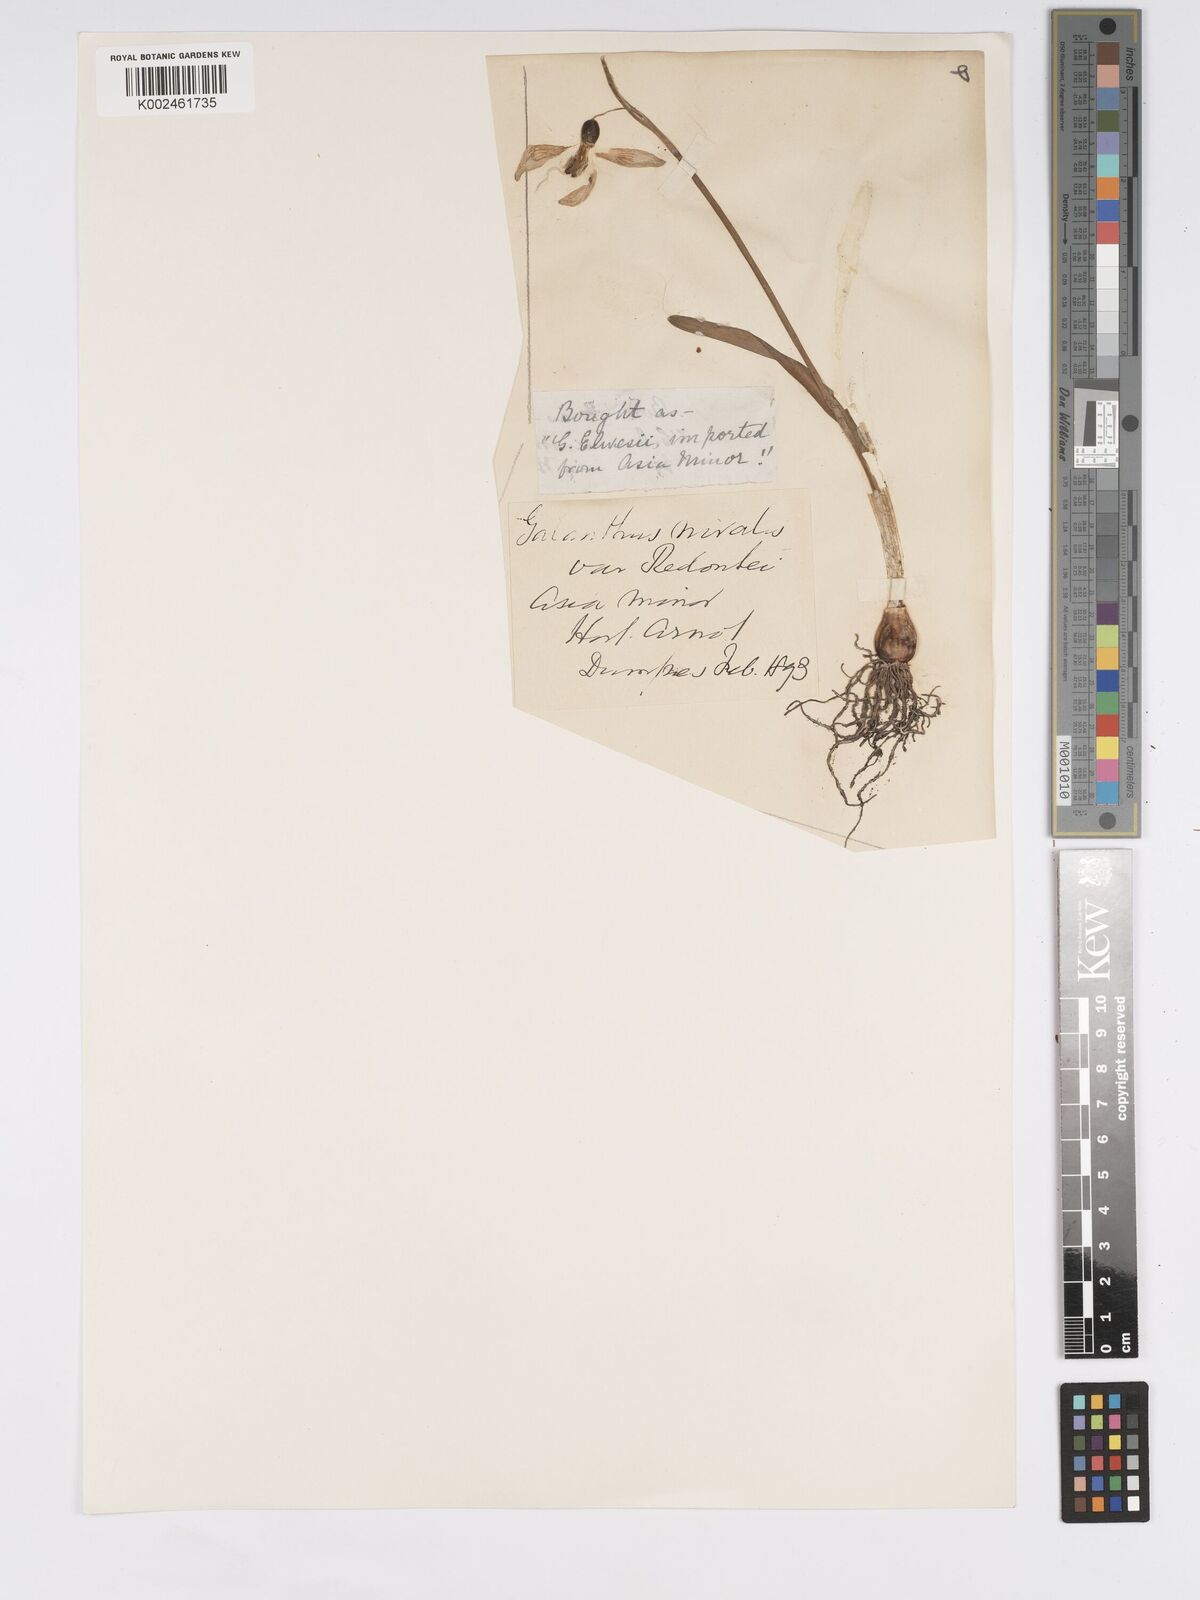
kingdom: Plantae
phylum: Tracheophyta
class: Liliopsida
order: Asparagales
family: Amaryllidaceae
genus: Galanthus
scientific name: Galanthus alpinus
